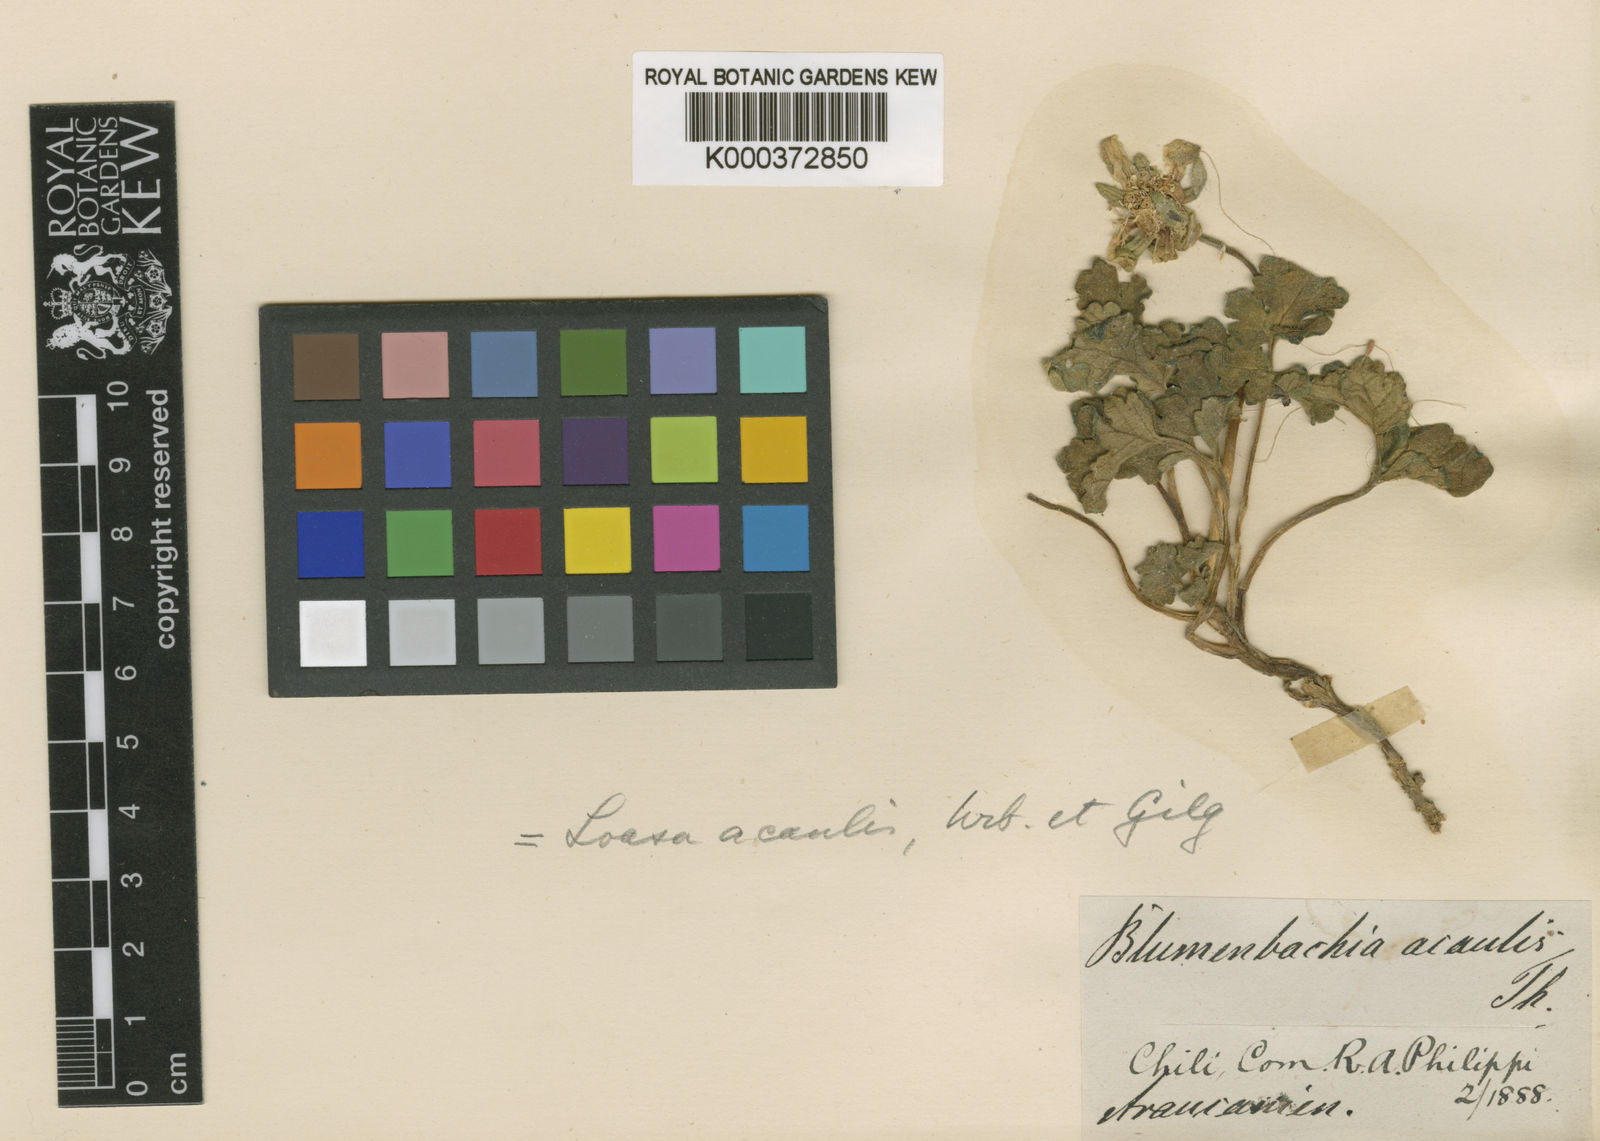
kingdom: Plantae
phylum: Tracheophyta
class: Magnoliopsida
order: Cornales
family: Loasaceae
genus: Grausa
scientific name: Grausa acaulis
